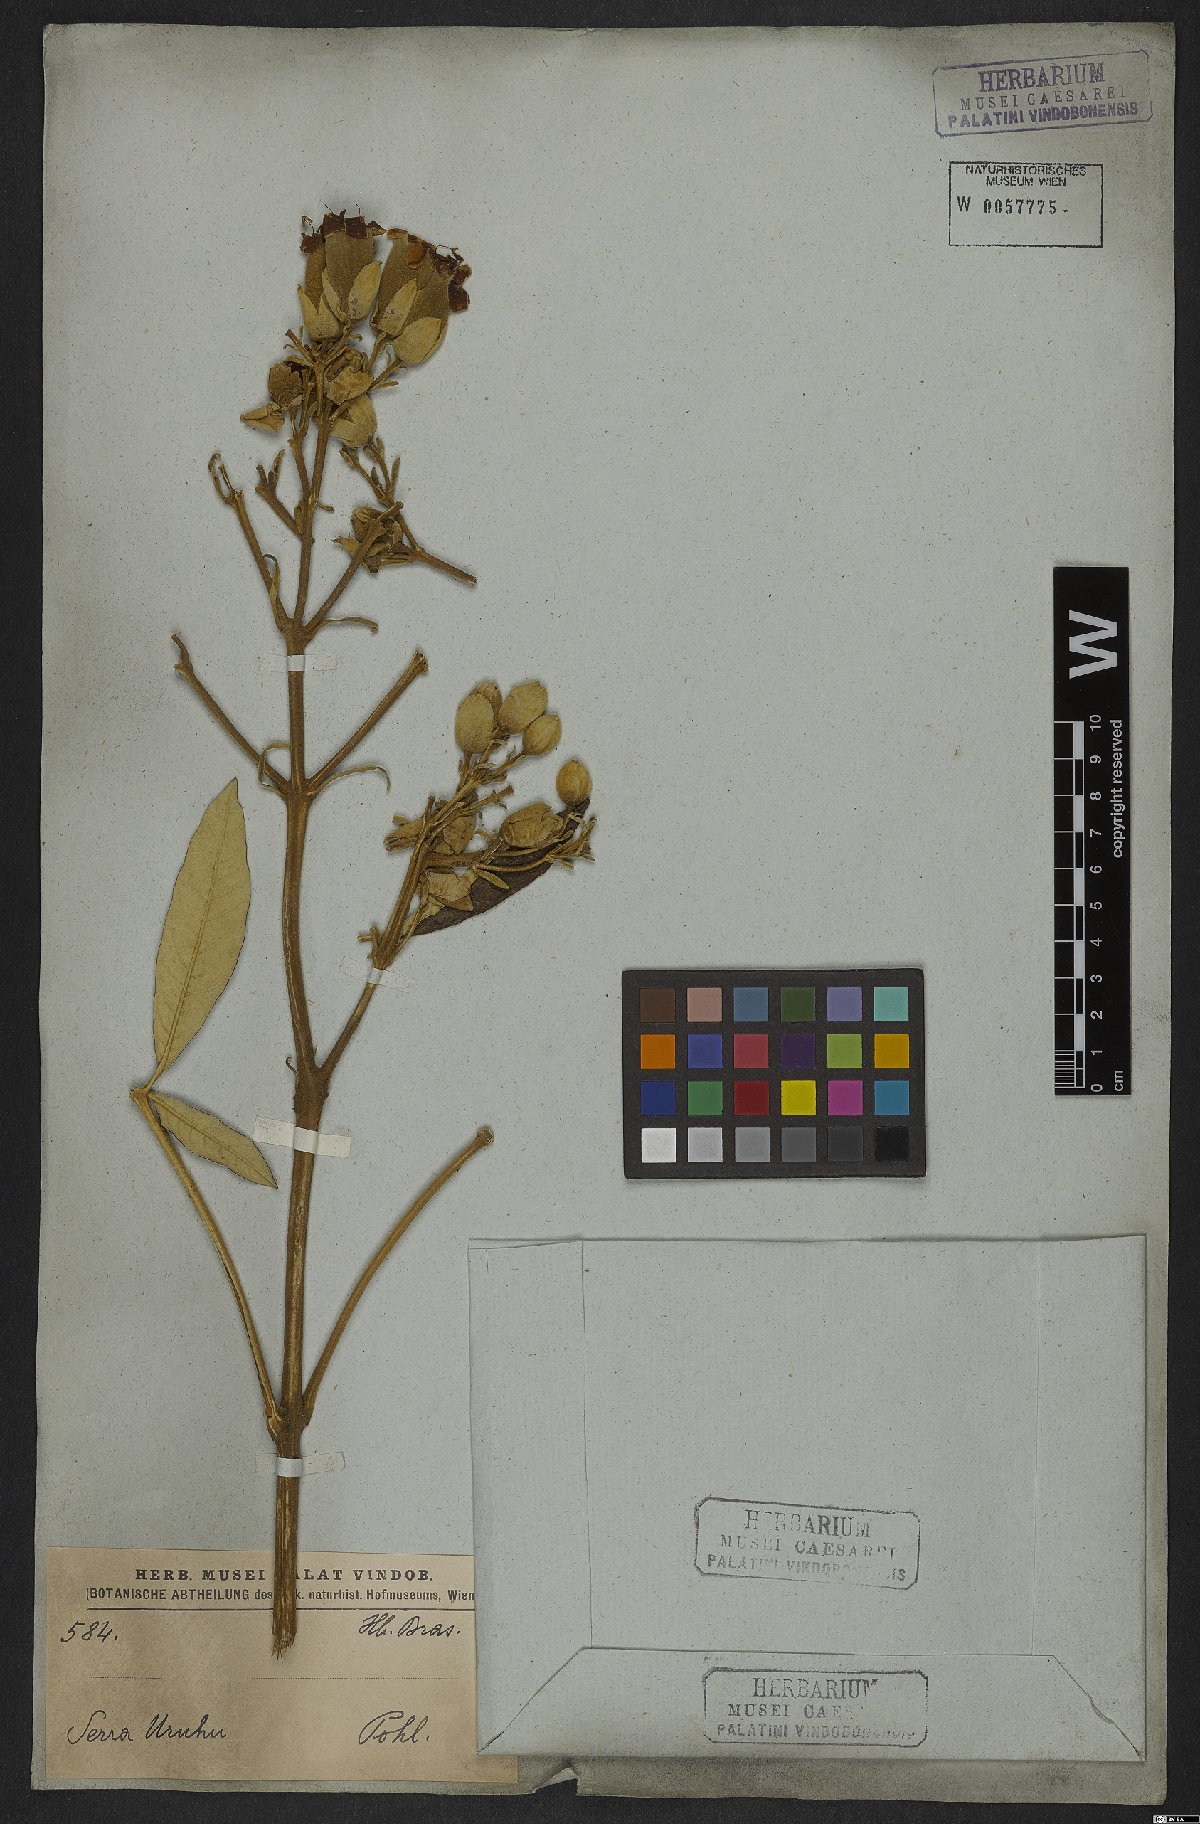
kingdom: Plantae
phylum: Tracheophyta
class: Magnoliopsida
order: Lamiales
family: Bignoniaceae
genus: Zeyheria
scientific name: Zeyheria montana
